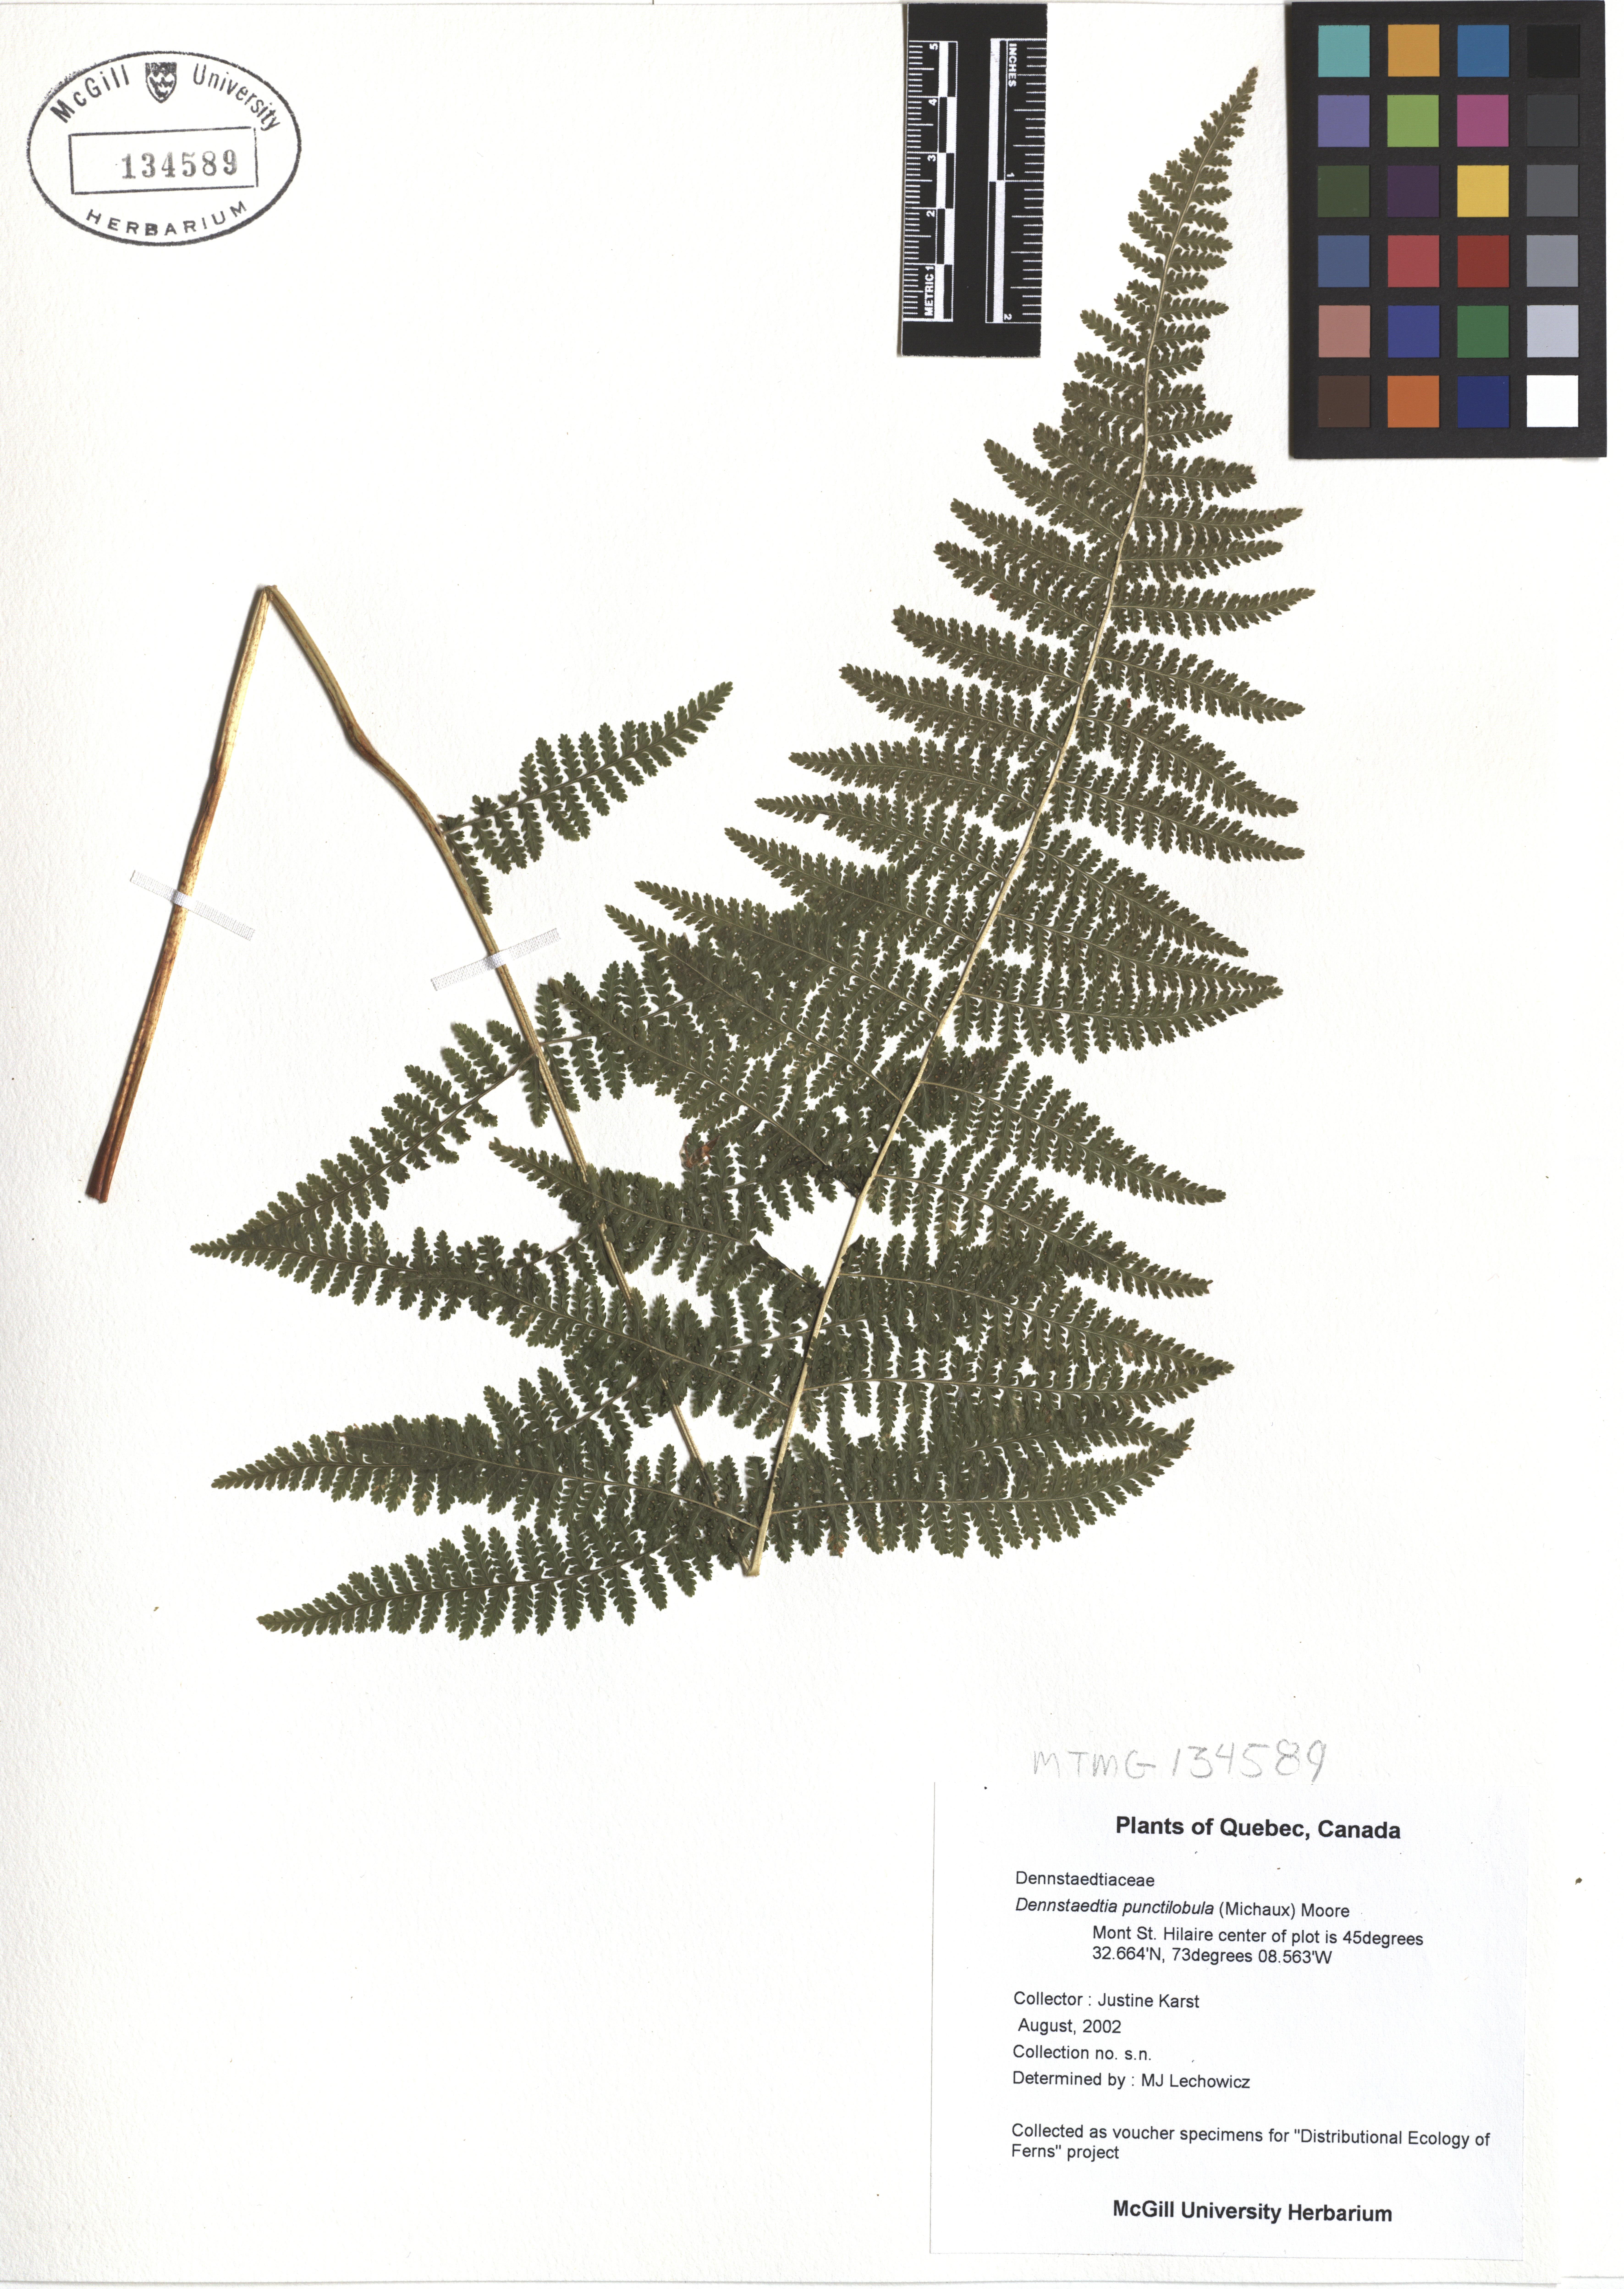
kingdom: Plantae
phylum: Tracheophyta
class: Polypodiopsida
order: Polypodiales
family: Dennstaedtiaceae
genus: Sitobolium
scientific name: Sitobolium punctilobum
